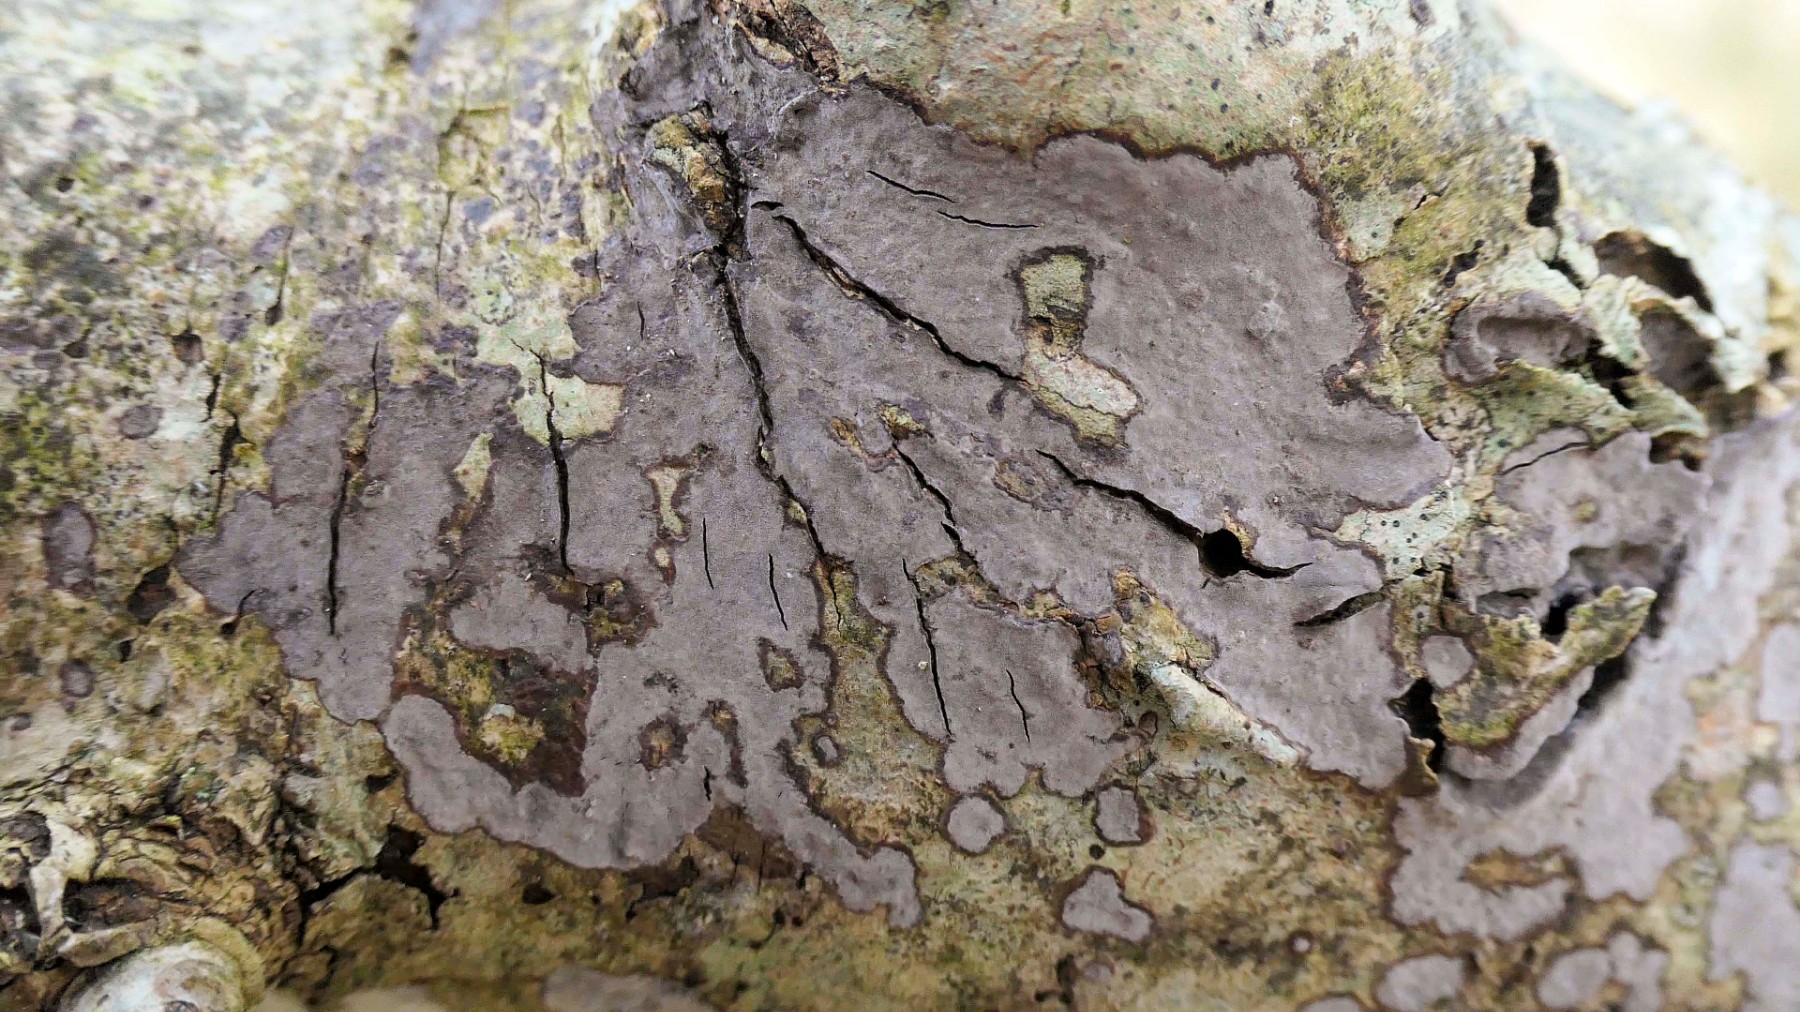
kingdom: Fungi
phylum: Basidiomycota
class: Agaricomycetes
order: Russulales
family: Peniophoraceae
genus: Peniophora
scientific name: Peniophora limitata
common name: mørkrandet voksskind
